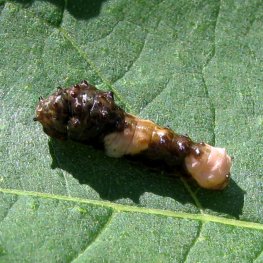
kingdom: Animalia
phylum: Arthropoda
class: Insecta
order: Lepidoptera
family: Papilionidae
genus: Papilio
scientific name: Papilio cresphontes
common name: Eastern Giant Swallowtail
